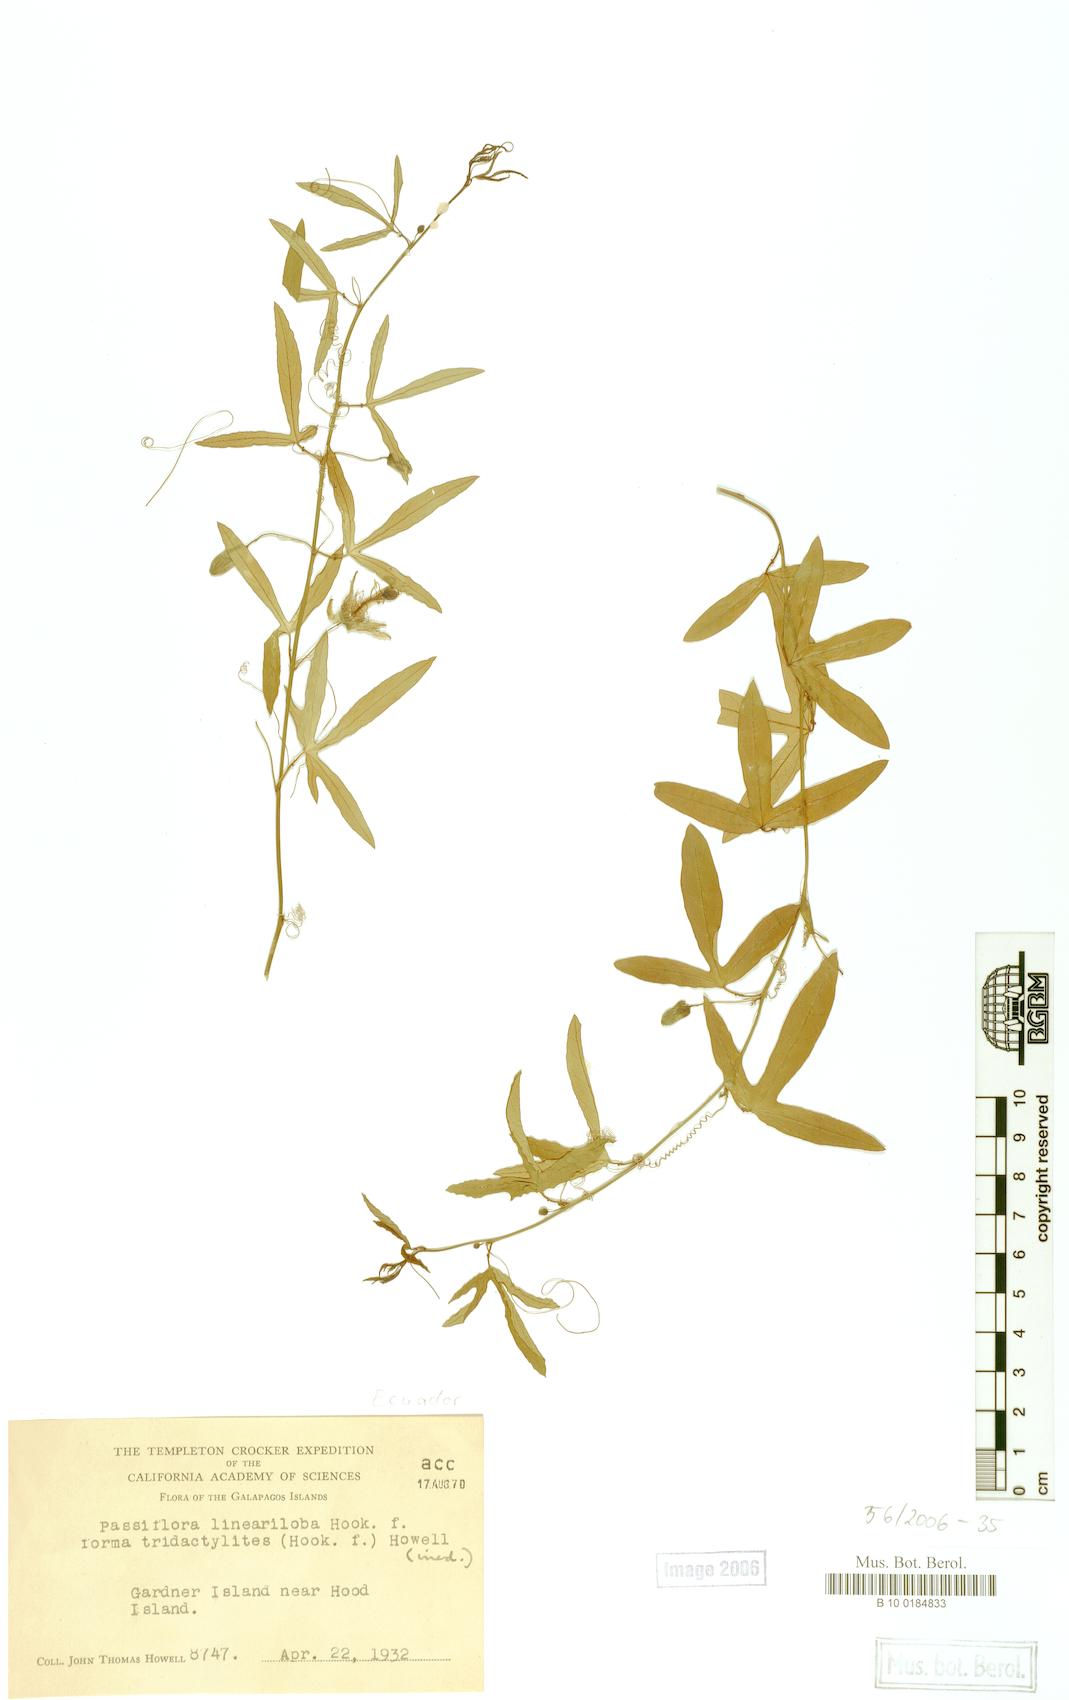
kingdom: Plantae
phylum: Tracheophyta
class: Magnoliopsida
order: Malpighiales
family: Passifloraceae
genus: Passiflora
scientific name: Passiflora suberosa
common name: Wild passionfruit
